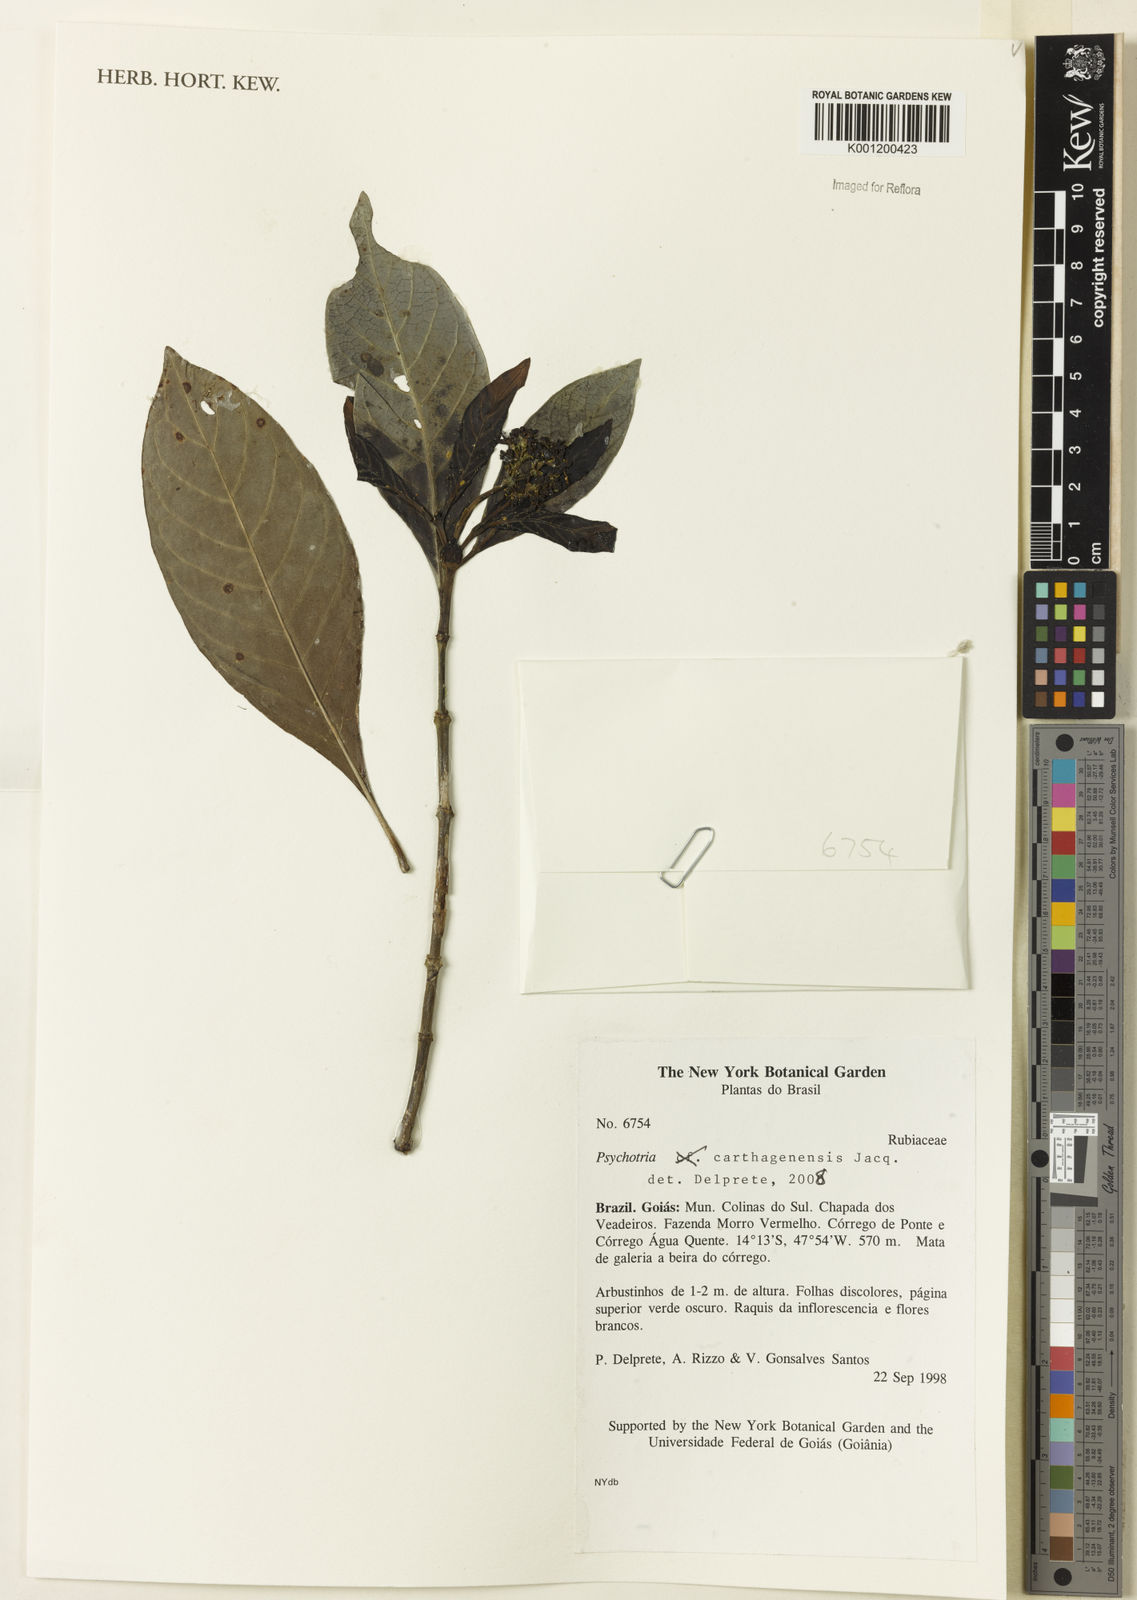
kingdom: Plantae
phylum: Tracheophyta
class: Magnoliopsida
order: Gentianales
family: Rubiaceae
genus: Psychotria
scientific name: Psychotria carthagenensis
